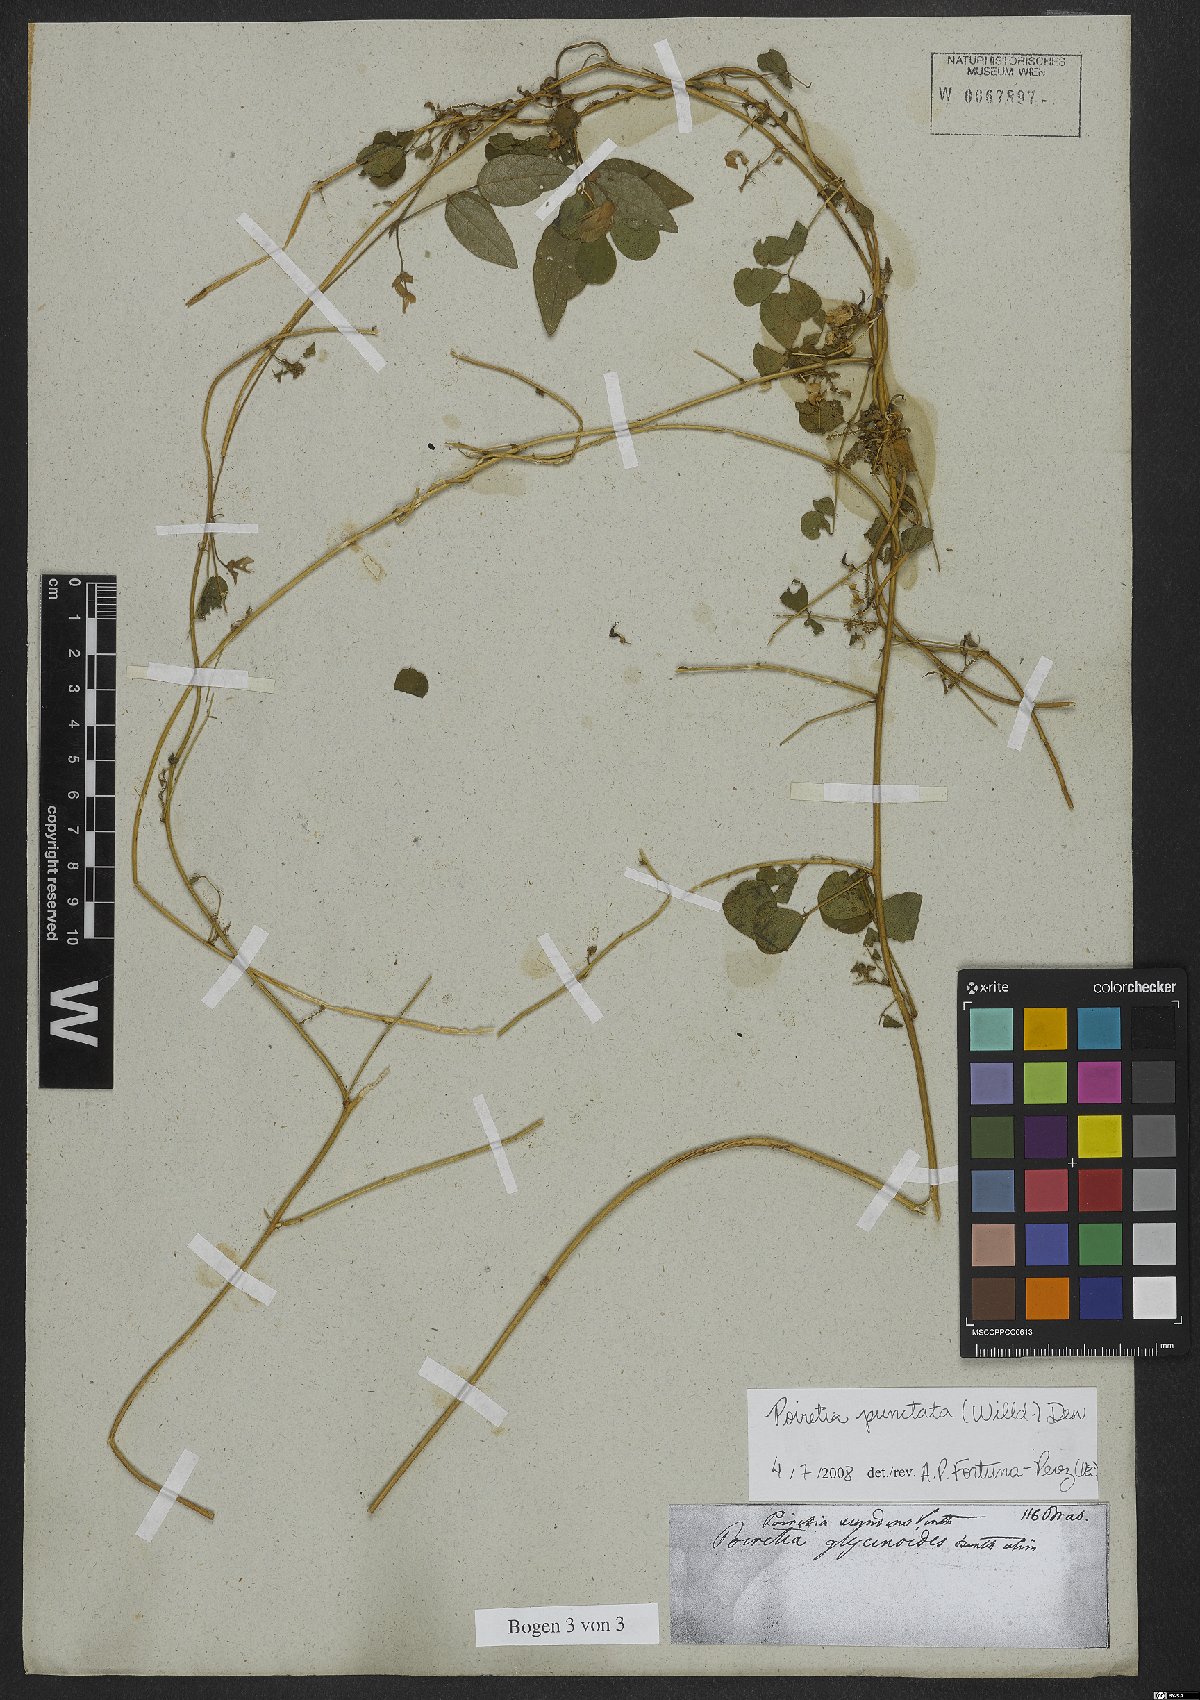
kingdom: Plantae
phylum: Tracheophyta
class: Magnoliopsida
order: Fabales
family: Fabaceae
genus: Poiretia
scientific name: Poiretia punctata
